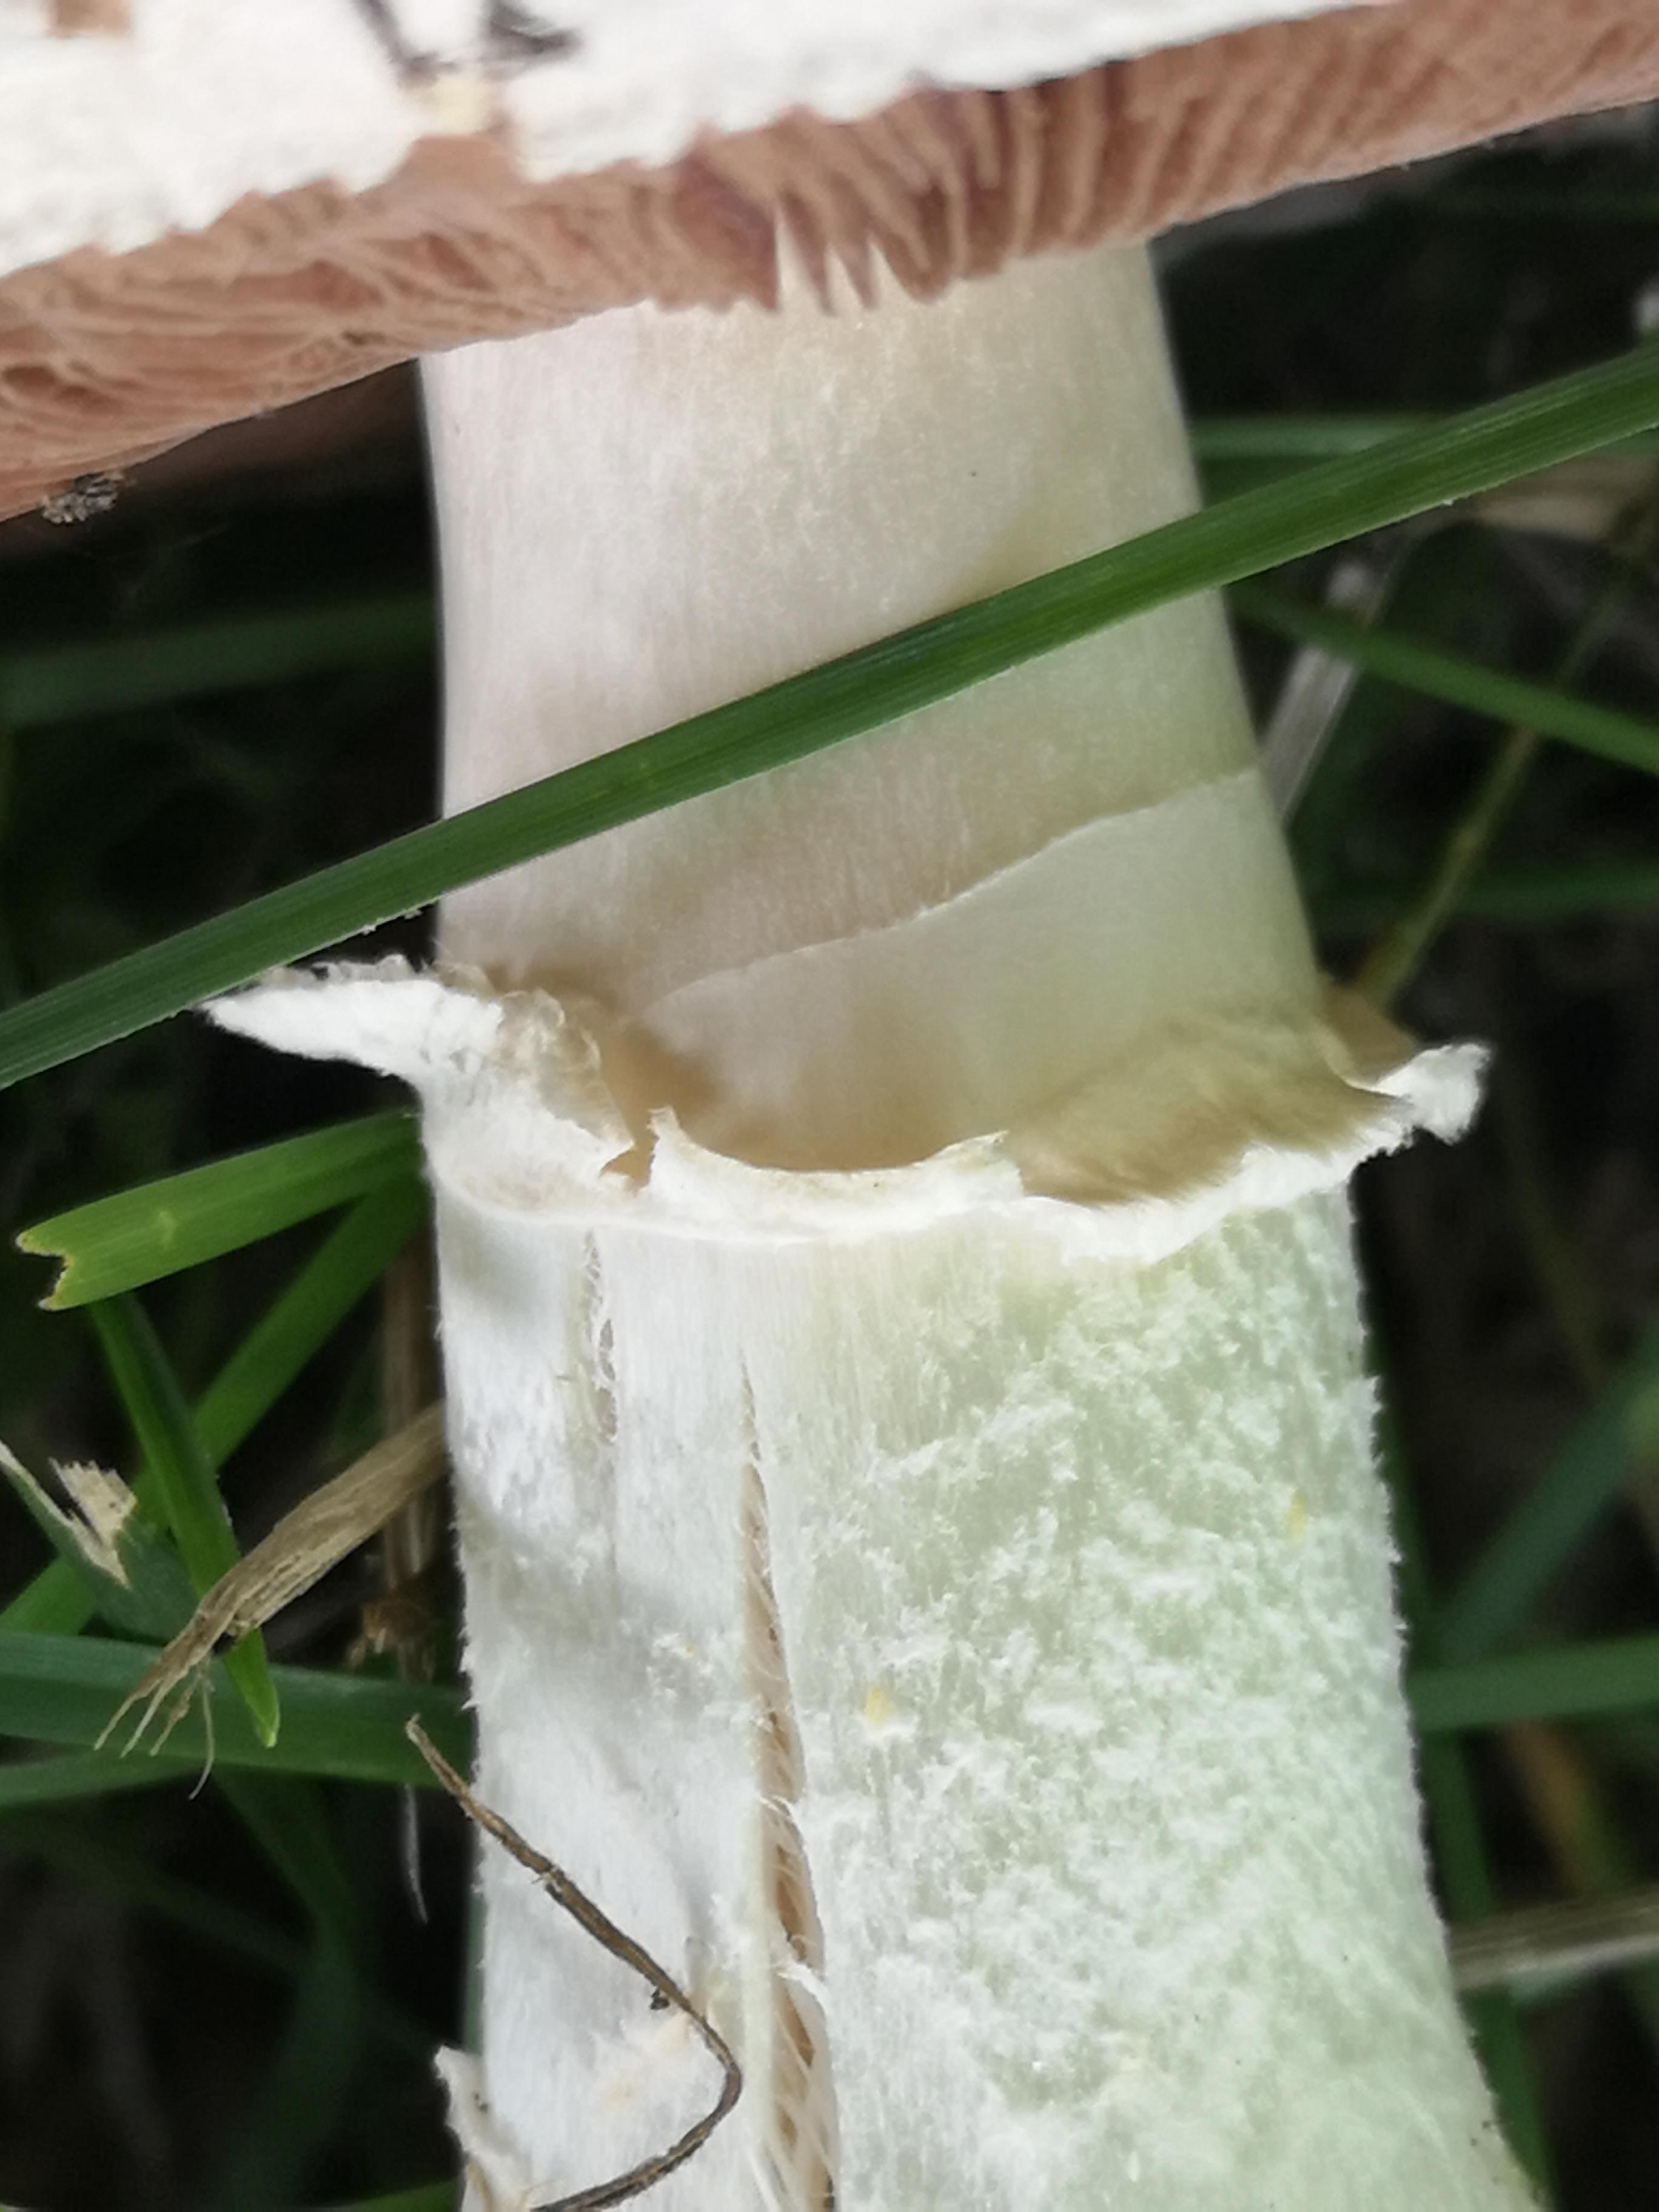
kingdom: Fungi
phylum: Basidiomycota
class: Agaricomycetes
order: Agaricales
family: Agaricaceae
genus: Agaricus
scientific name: Agaricus campestris
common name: mark-champignon
